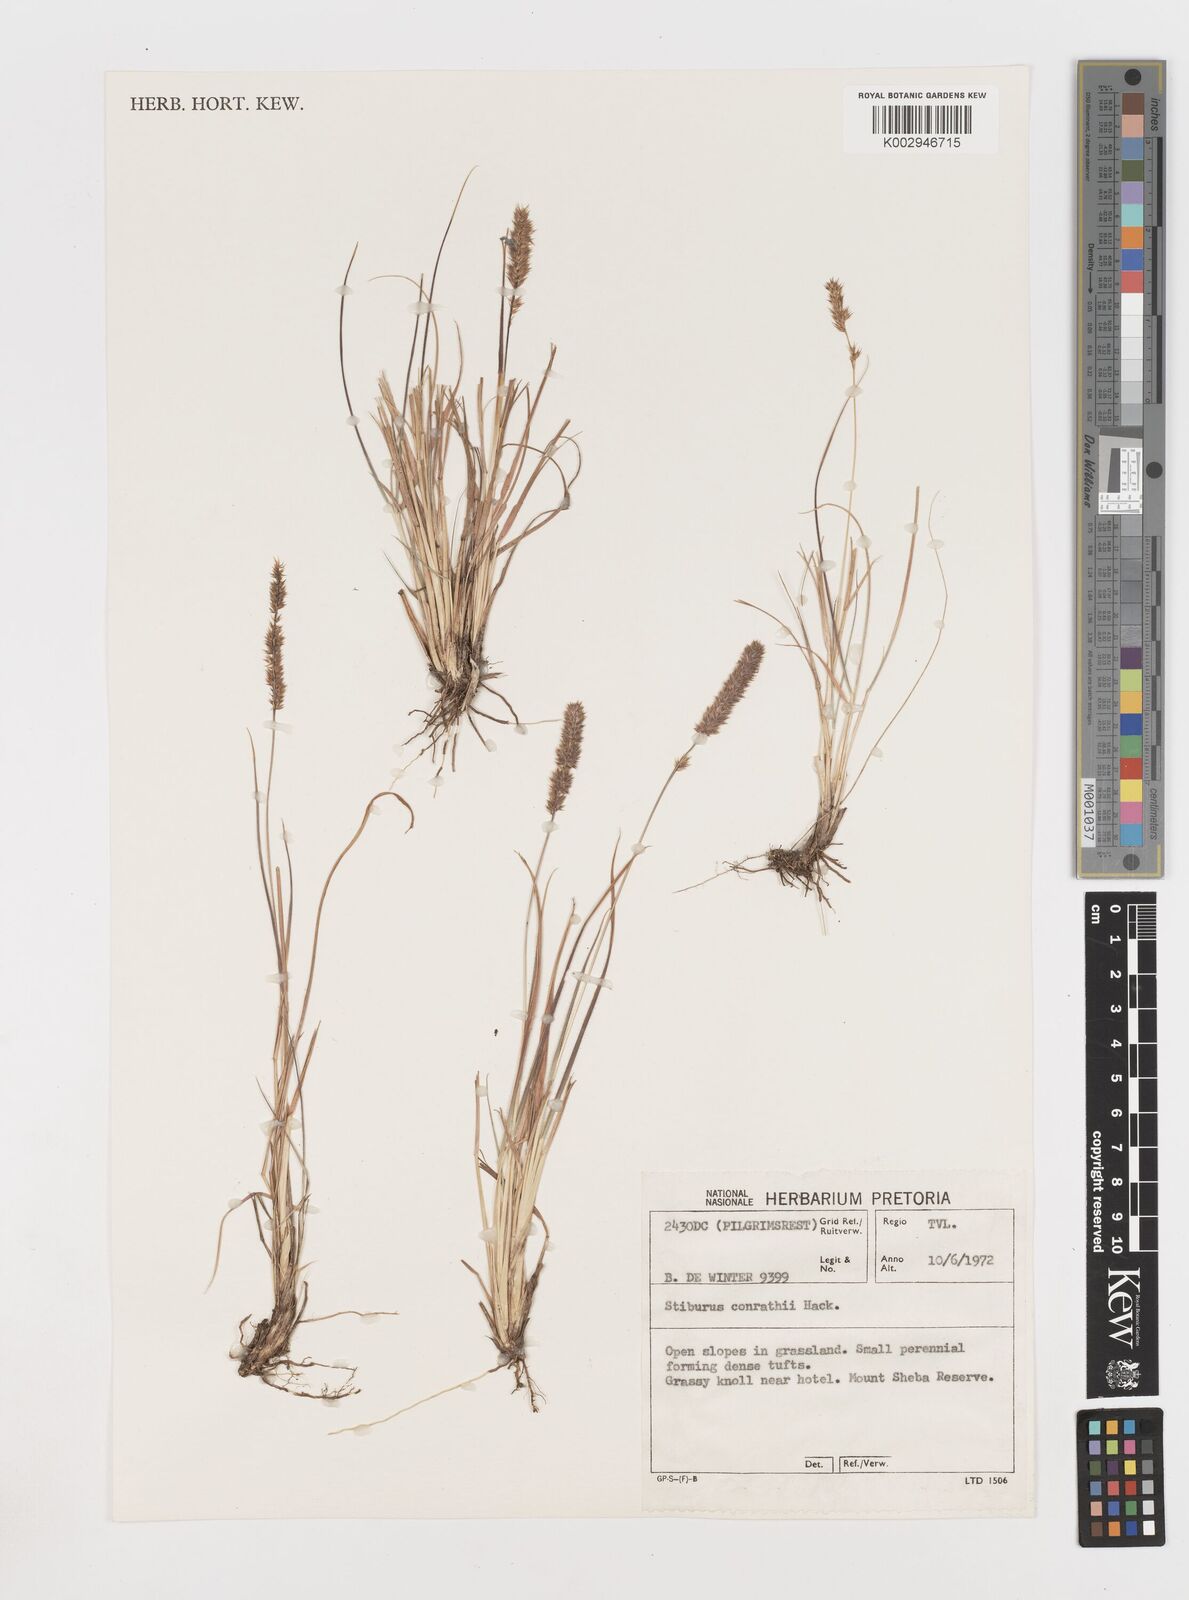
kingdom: Plantae
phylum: Tracheophyta
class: Liliopsida
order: Poales
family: Poaceae
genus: Stiburus
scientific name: Stiburus conrathii
